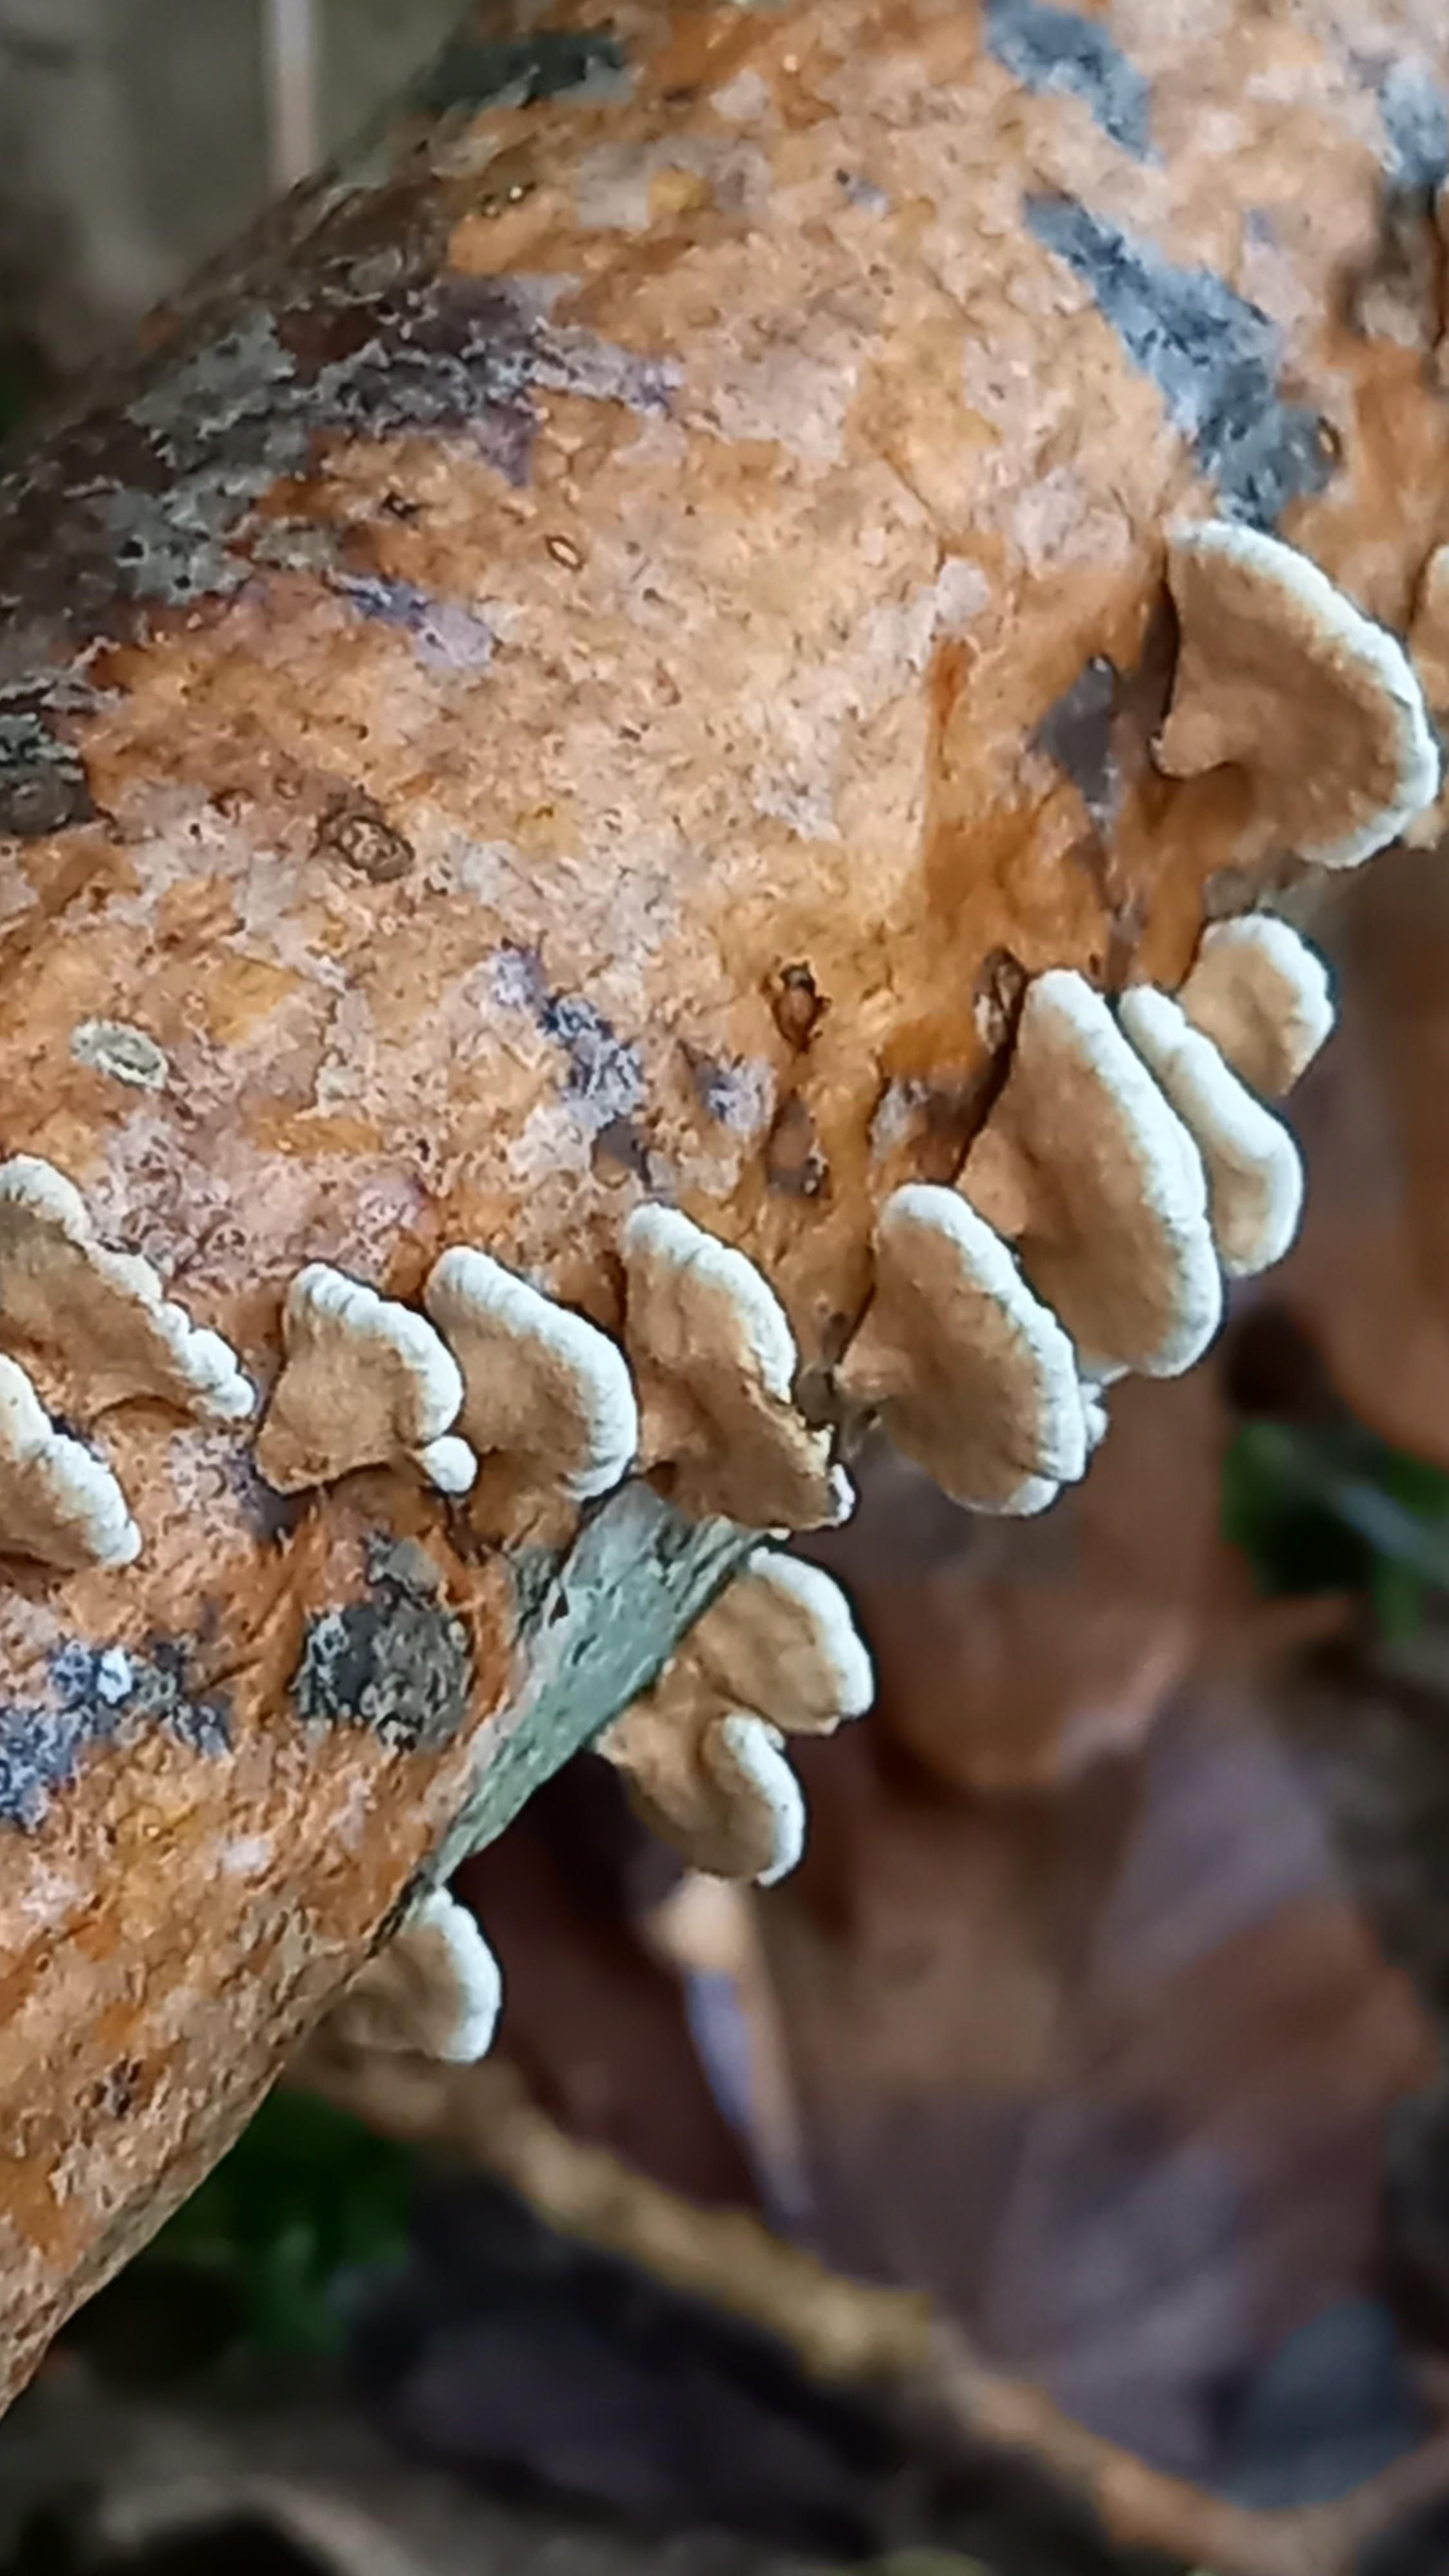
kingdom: Fungi
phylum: Basidiomycota
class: Agaricomycetes
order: Amylocorticiales
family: Amylocorticiaceae
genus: Plicaturopsis
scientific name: Plicaturopsis crispa
